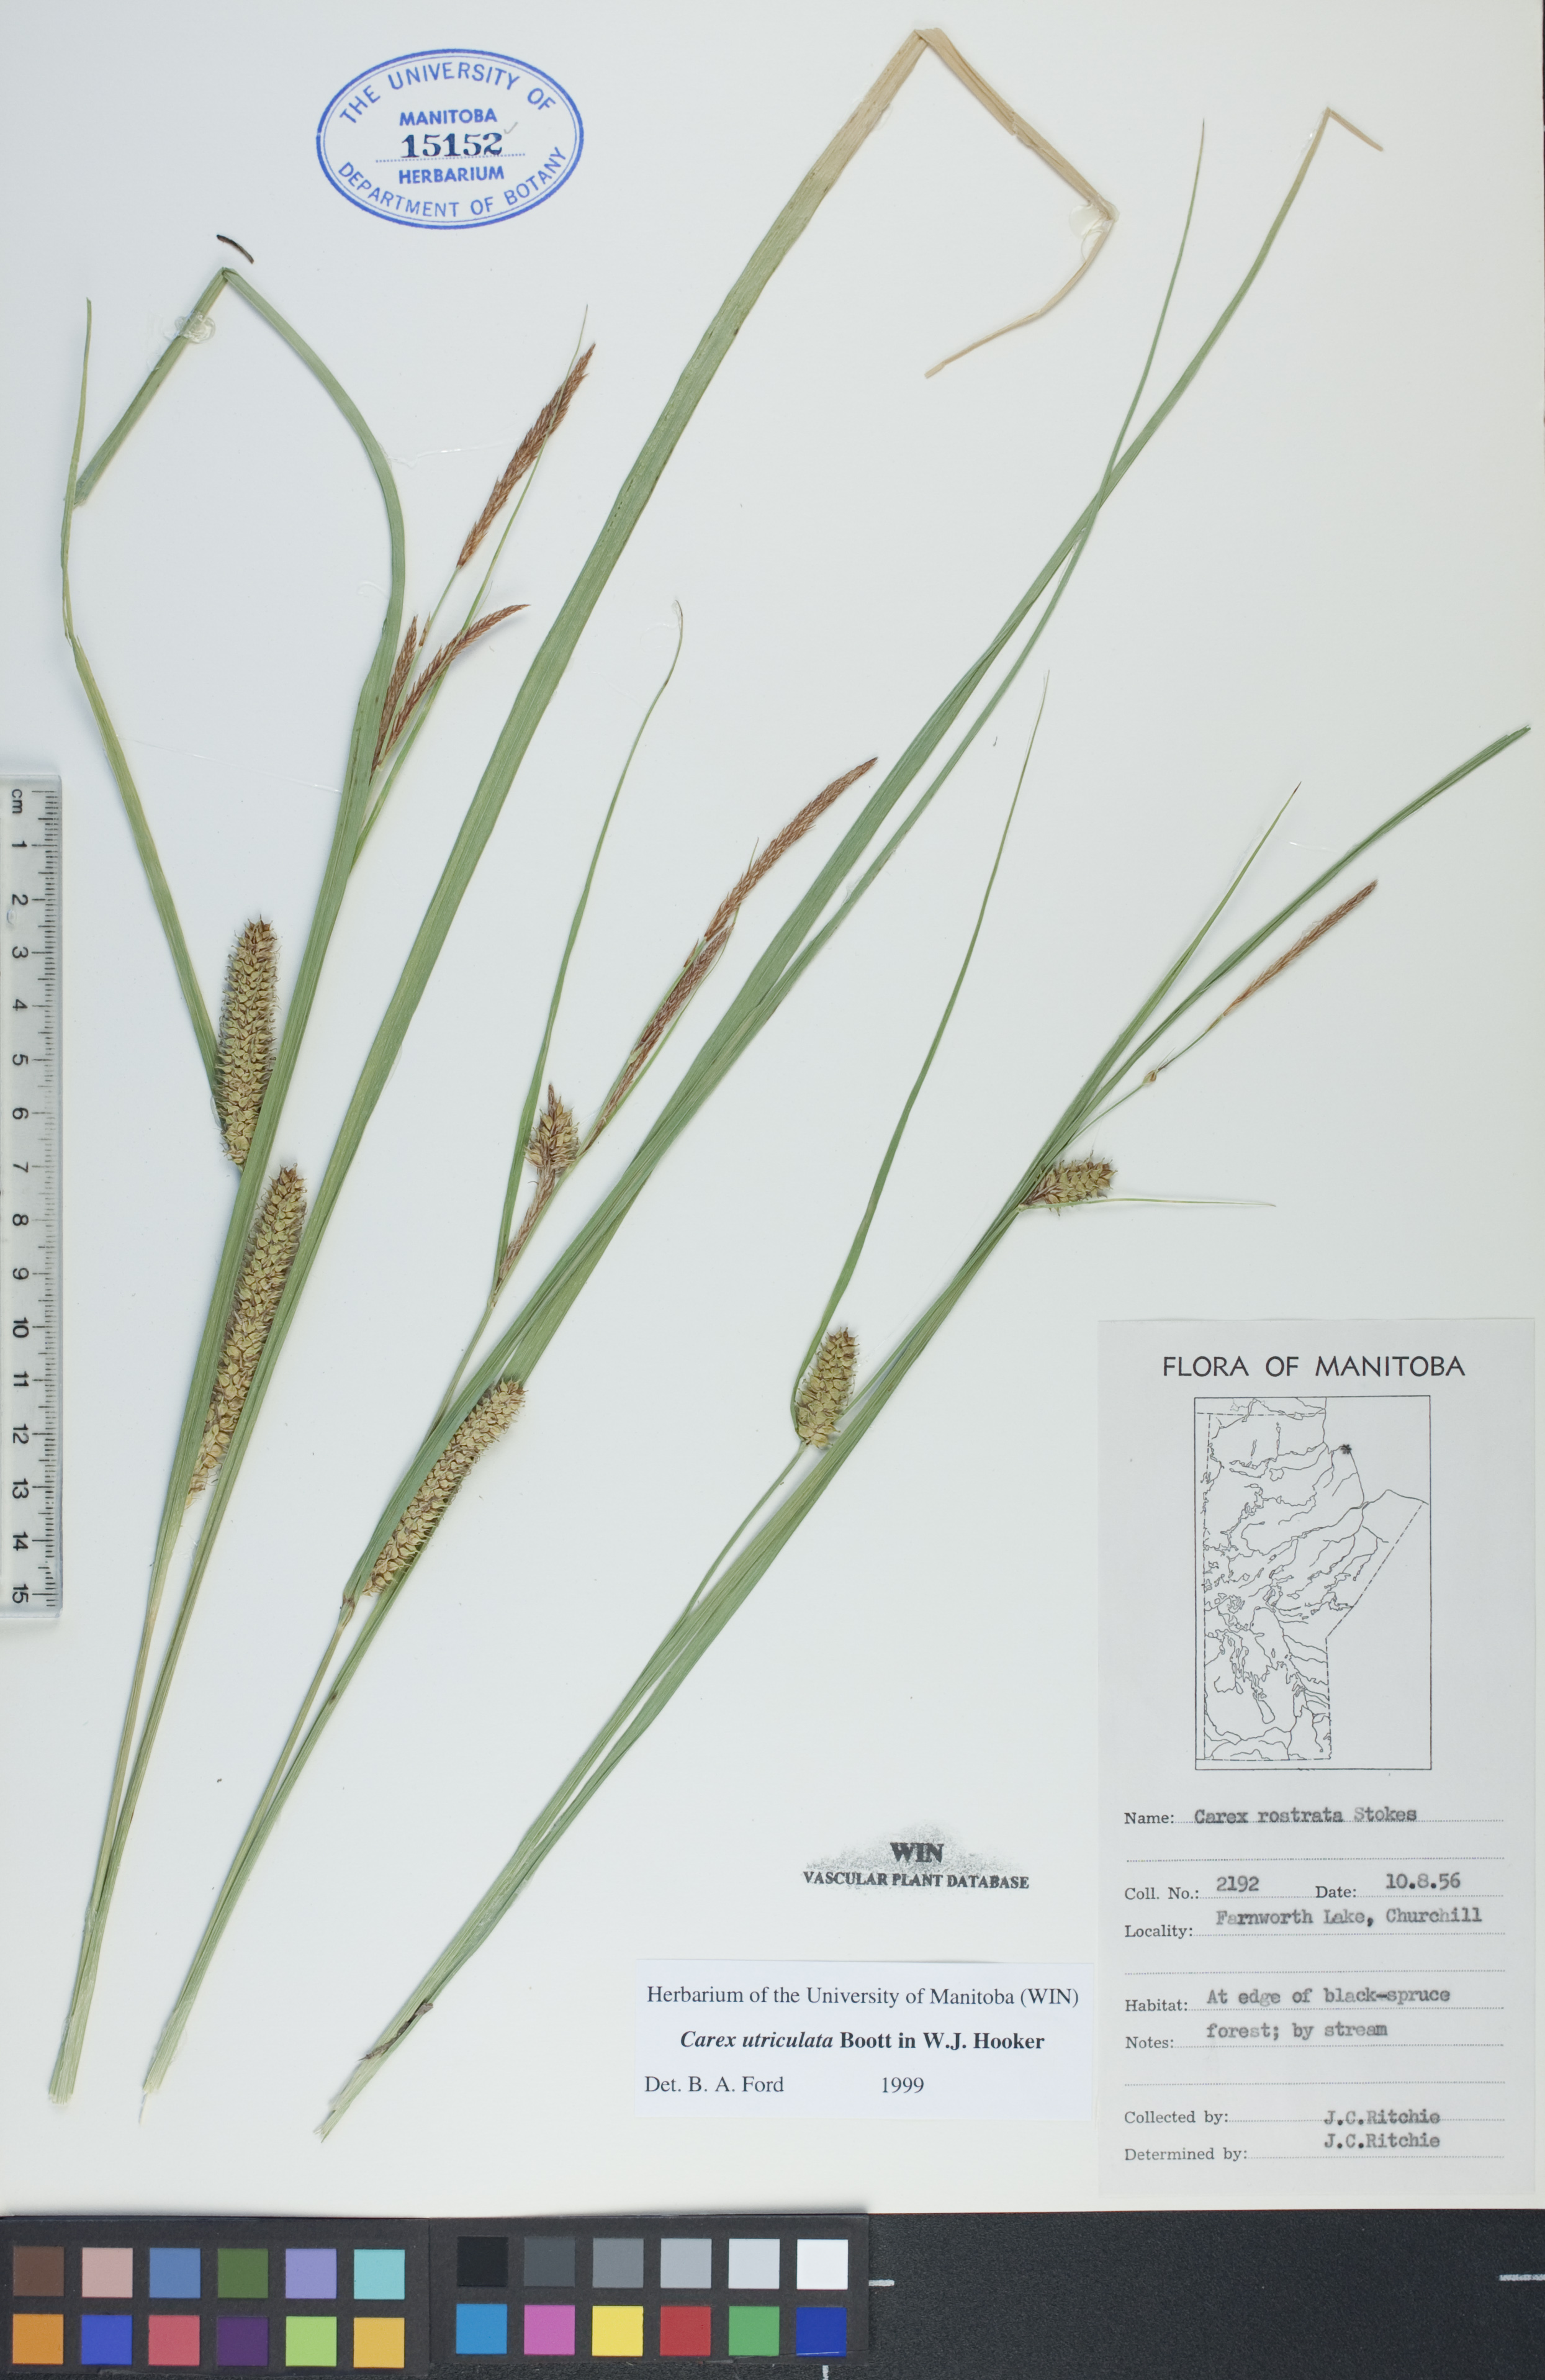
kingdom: Plantae
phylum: Tracheophyta
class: Liliopsida
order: Poales
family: Cyperaceae
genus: Carex
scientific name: Carex utriculata
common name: Beaked sedge
